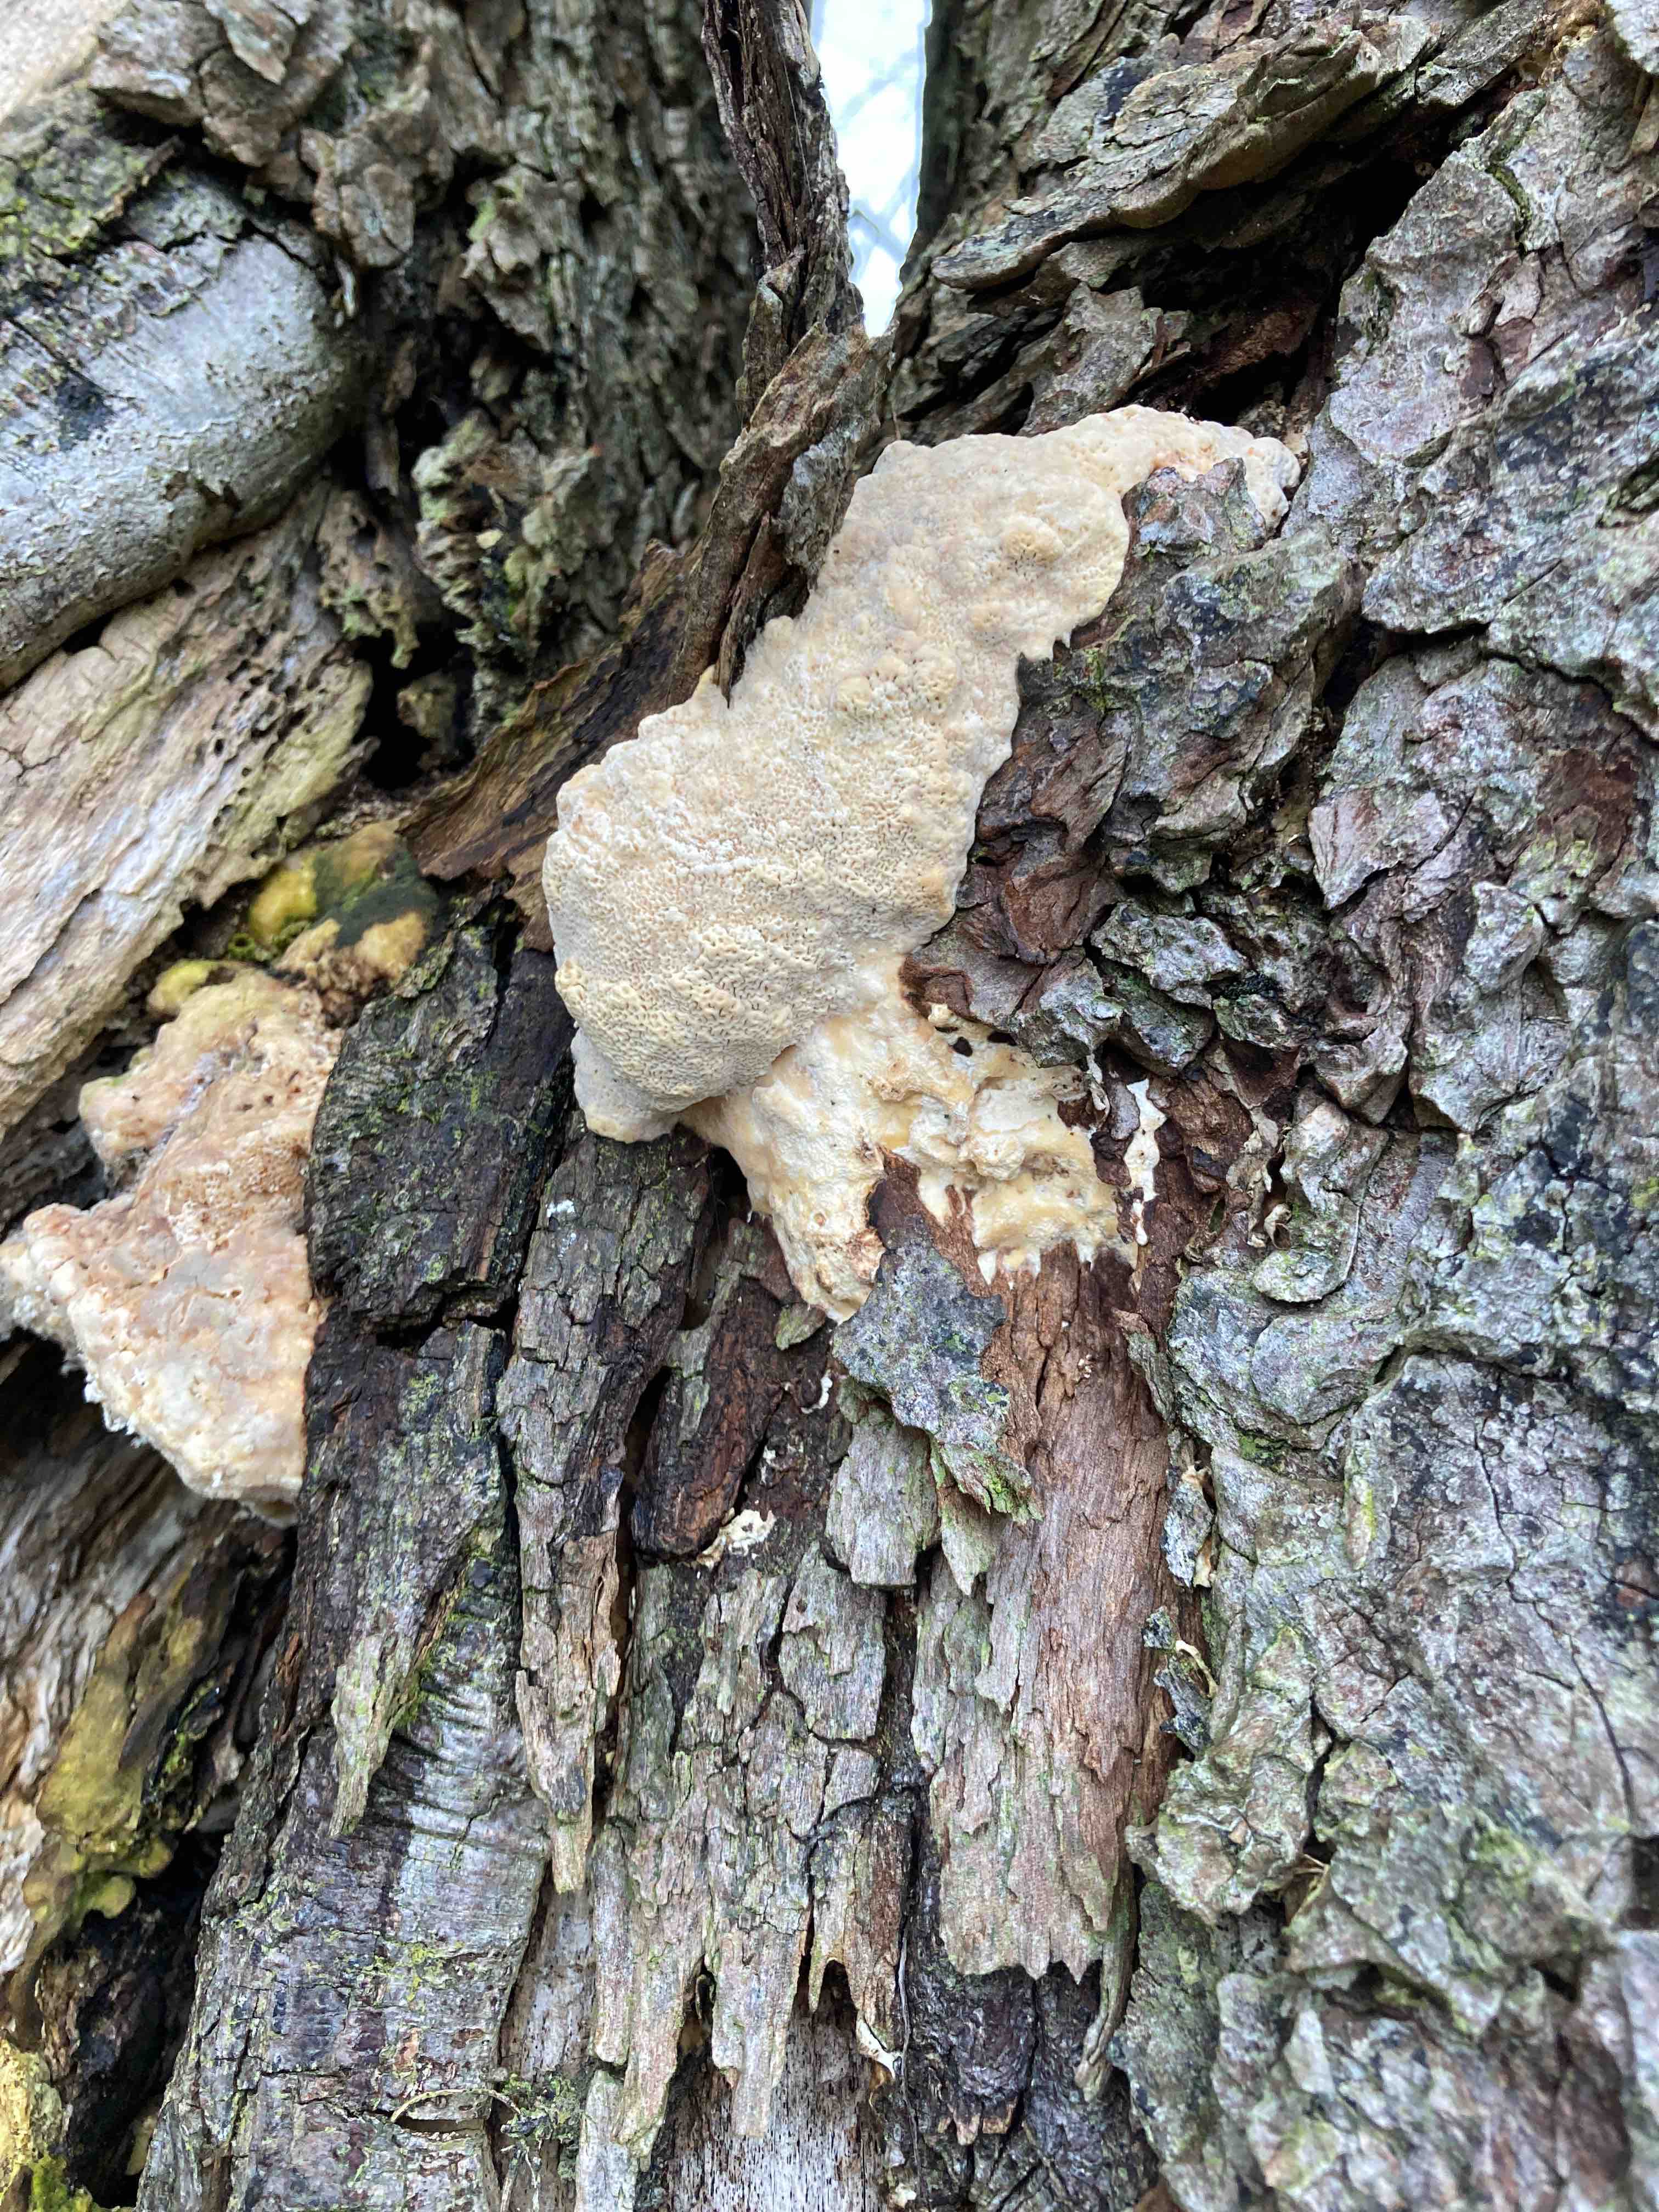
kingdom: Fungi
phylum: Basidiomycota
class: Agaricomycetes
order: Polyporales
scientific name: Polyporales
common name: poresvampordenen
